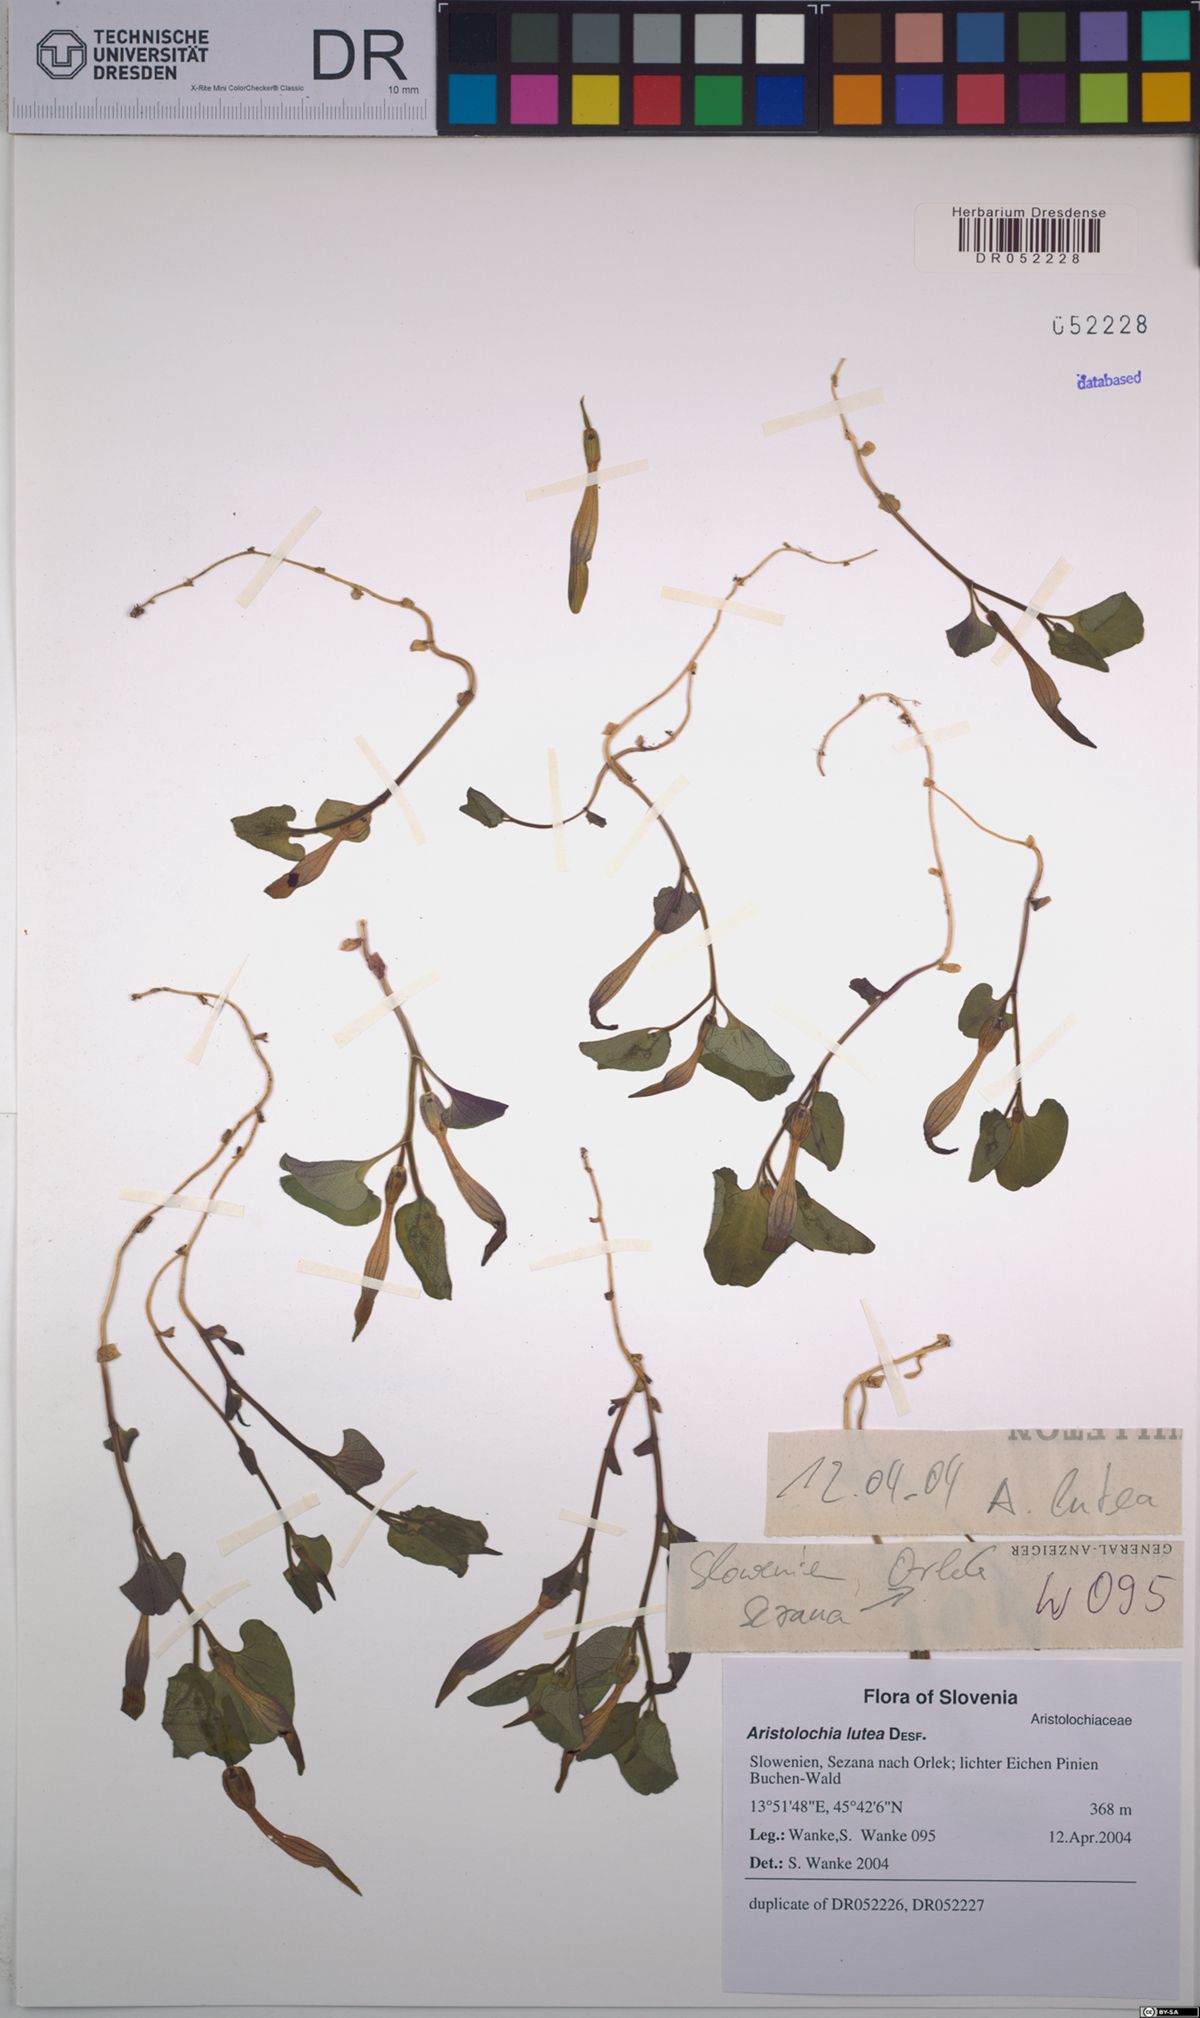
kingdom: Plantae
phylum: Tracheophyta
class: Magnoliopsida
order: Piperales
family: Aristolochiaceae
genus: Aristolochia
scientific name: Aristolochia lutea
